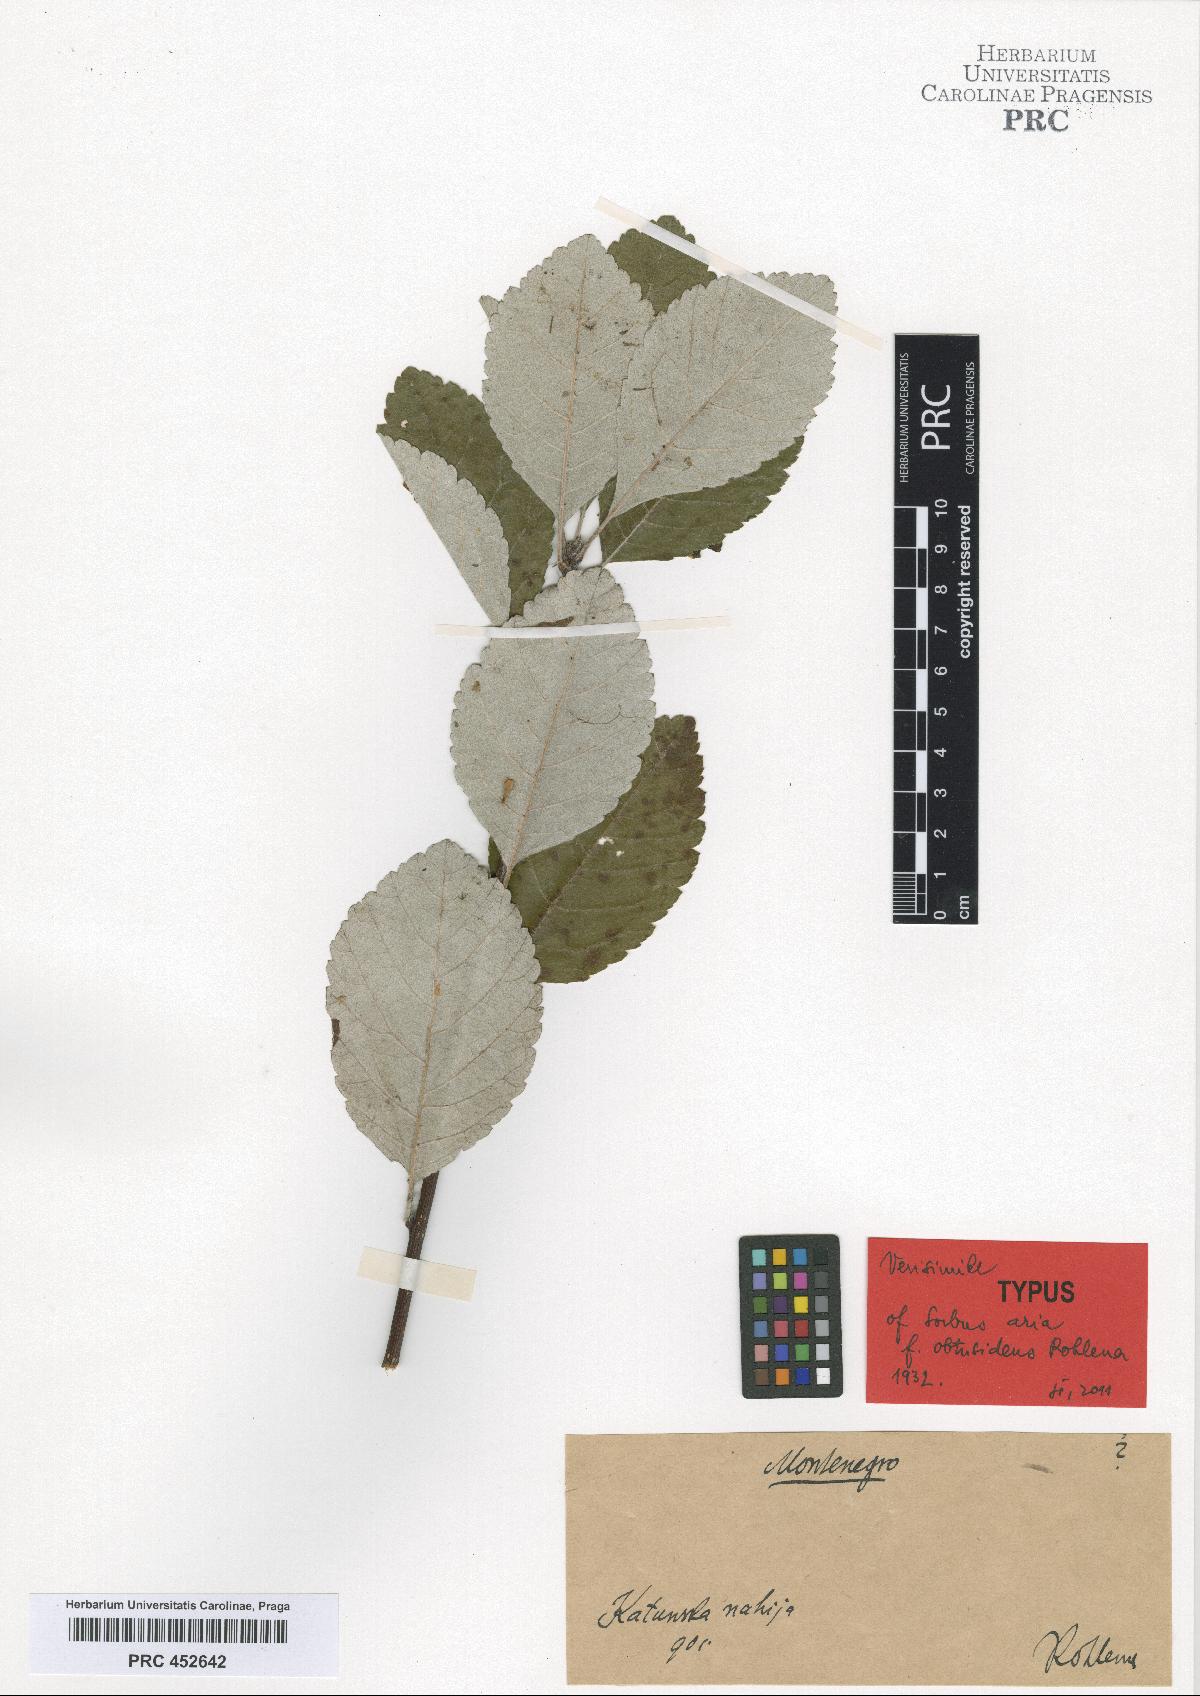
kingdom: Plantae
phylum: Tracheophyta
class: Magnoliopsida
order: Rosales
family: Rosaceae
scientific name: Rosaceae
